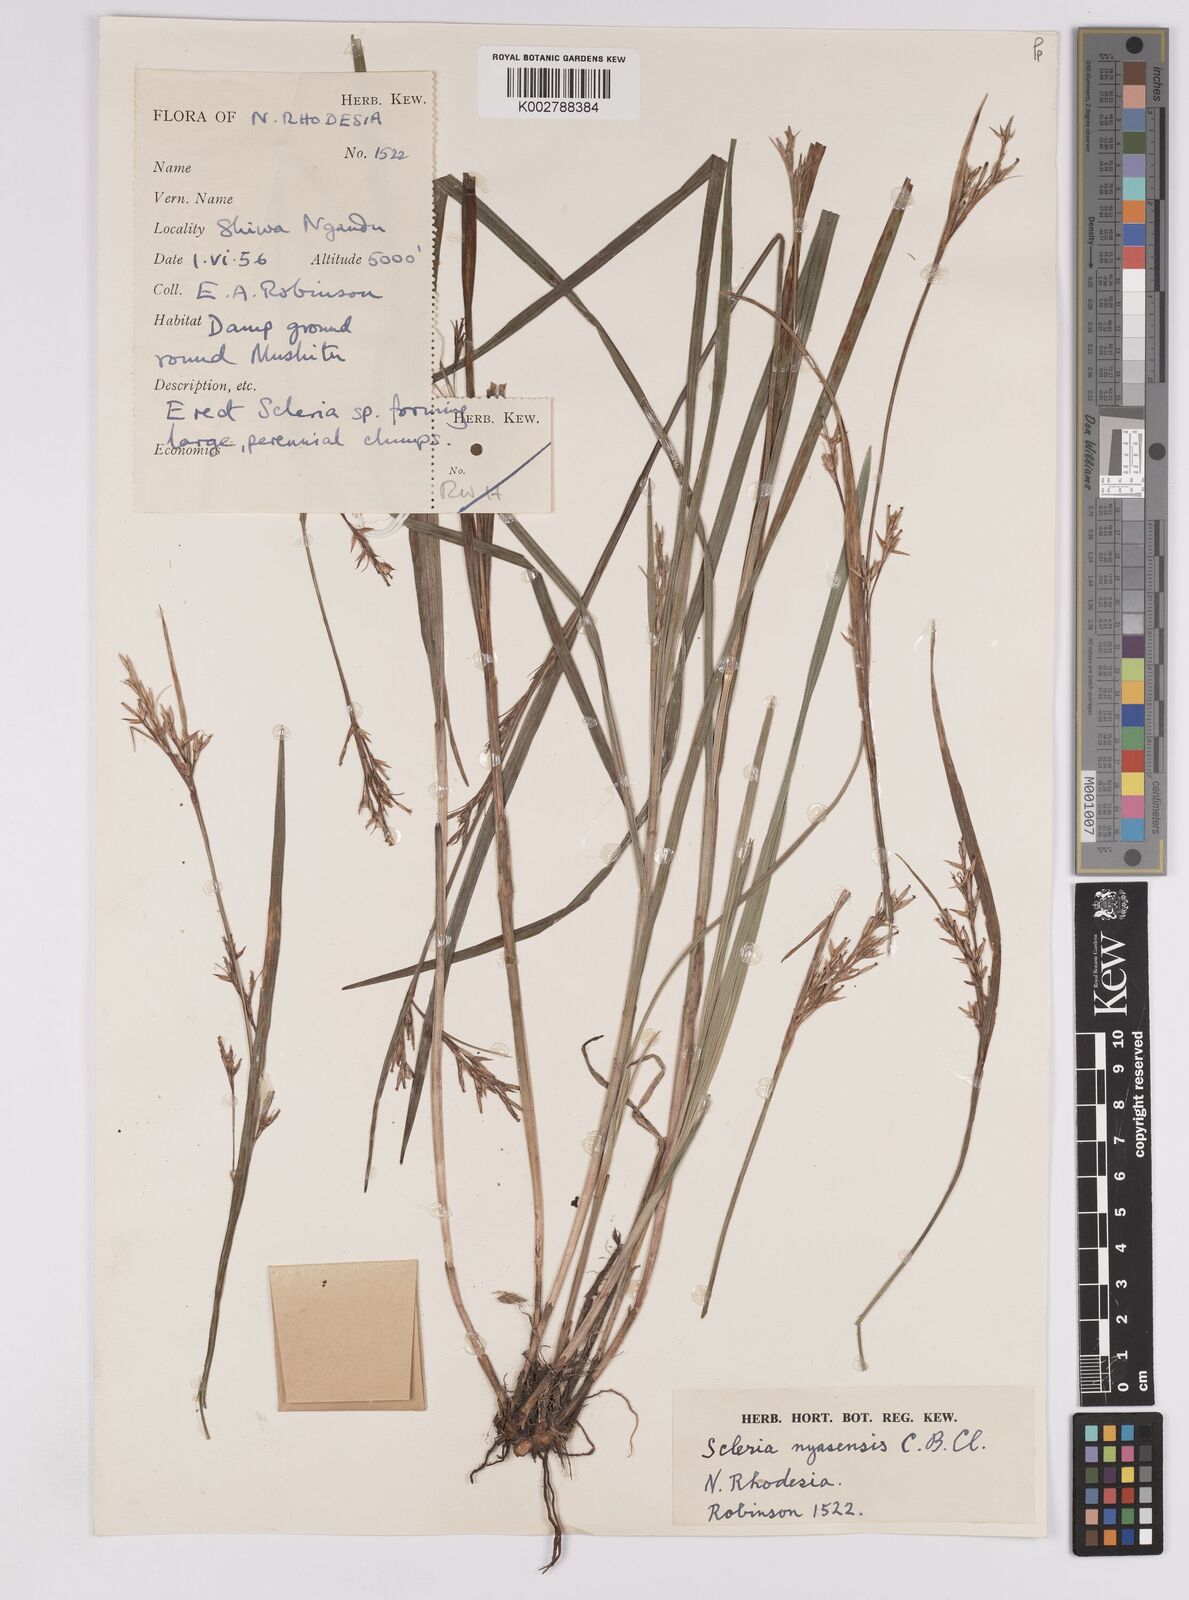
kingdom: Plantae
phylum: Tracheophyta
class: Liliopsida
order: Poales
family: Cyperaceae
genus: Scleria
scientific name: Scleria nyasensis
